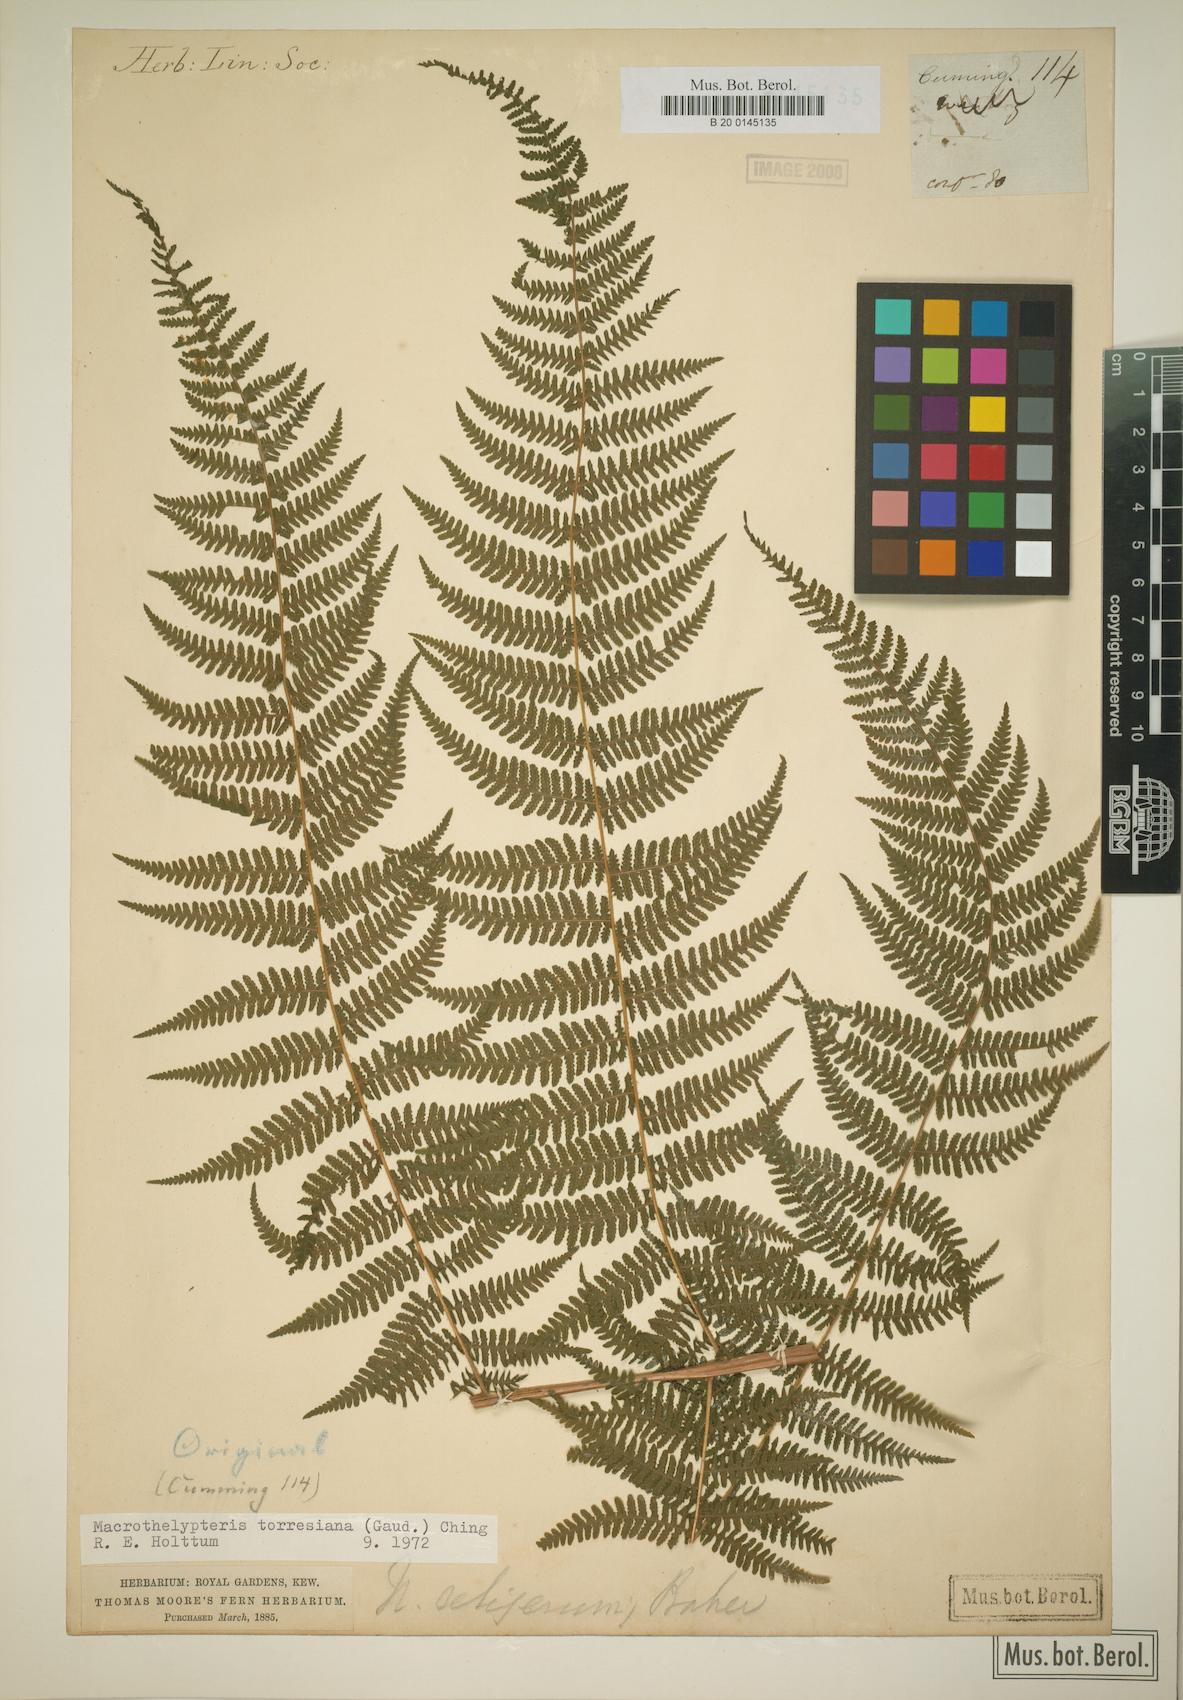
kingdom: Plantae
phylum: Tracheophyta
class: Polypodiopsida
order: Polypodiales
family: Thelypteridaceae
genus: Macrothelypteris
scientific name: Macrothelypteris torresiana
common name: Swordfern
